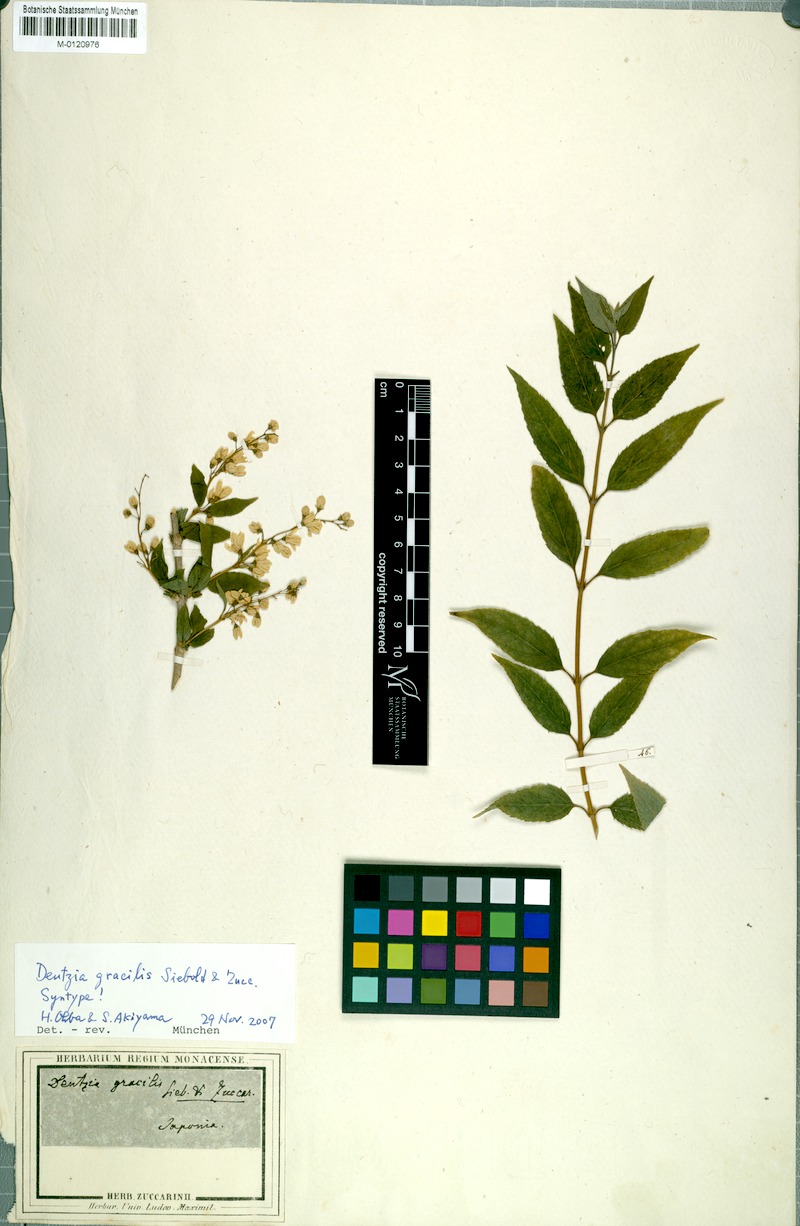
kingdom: Plantae
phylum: Tracheophyta
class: Magnoliopsida
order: Cornales
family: Hydrangeaceae
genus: Deutzia
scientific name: Deutzia gracilis
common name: Slender pride of rochester
